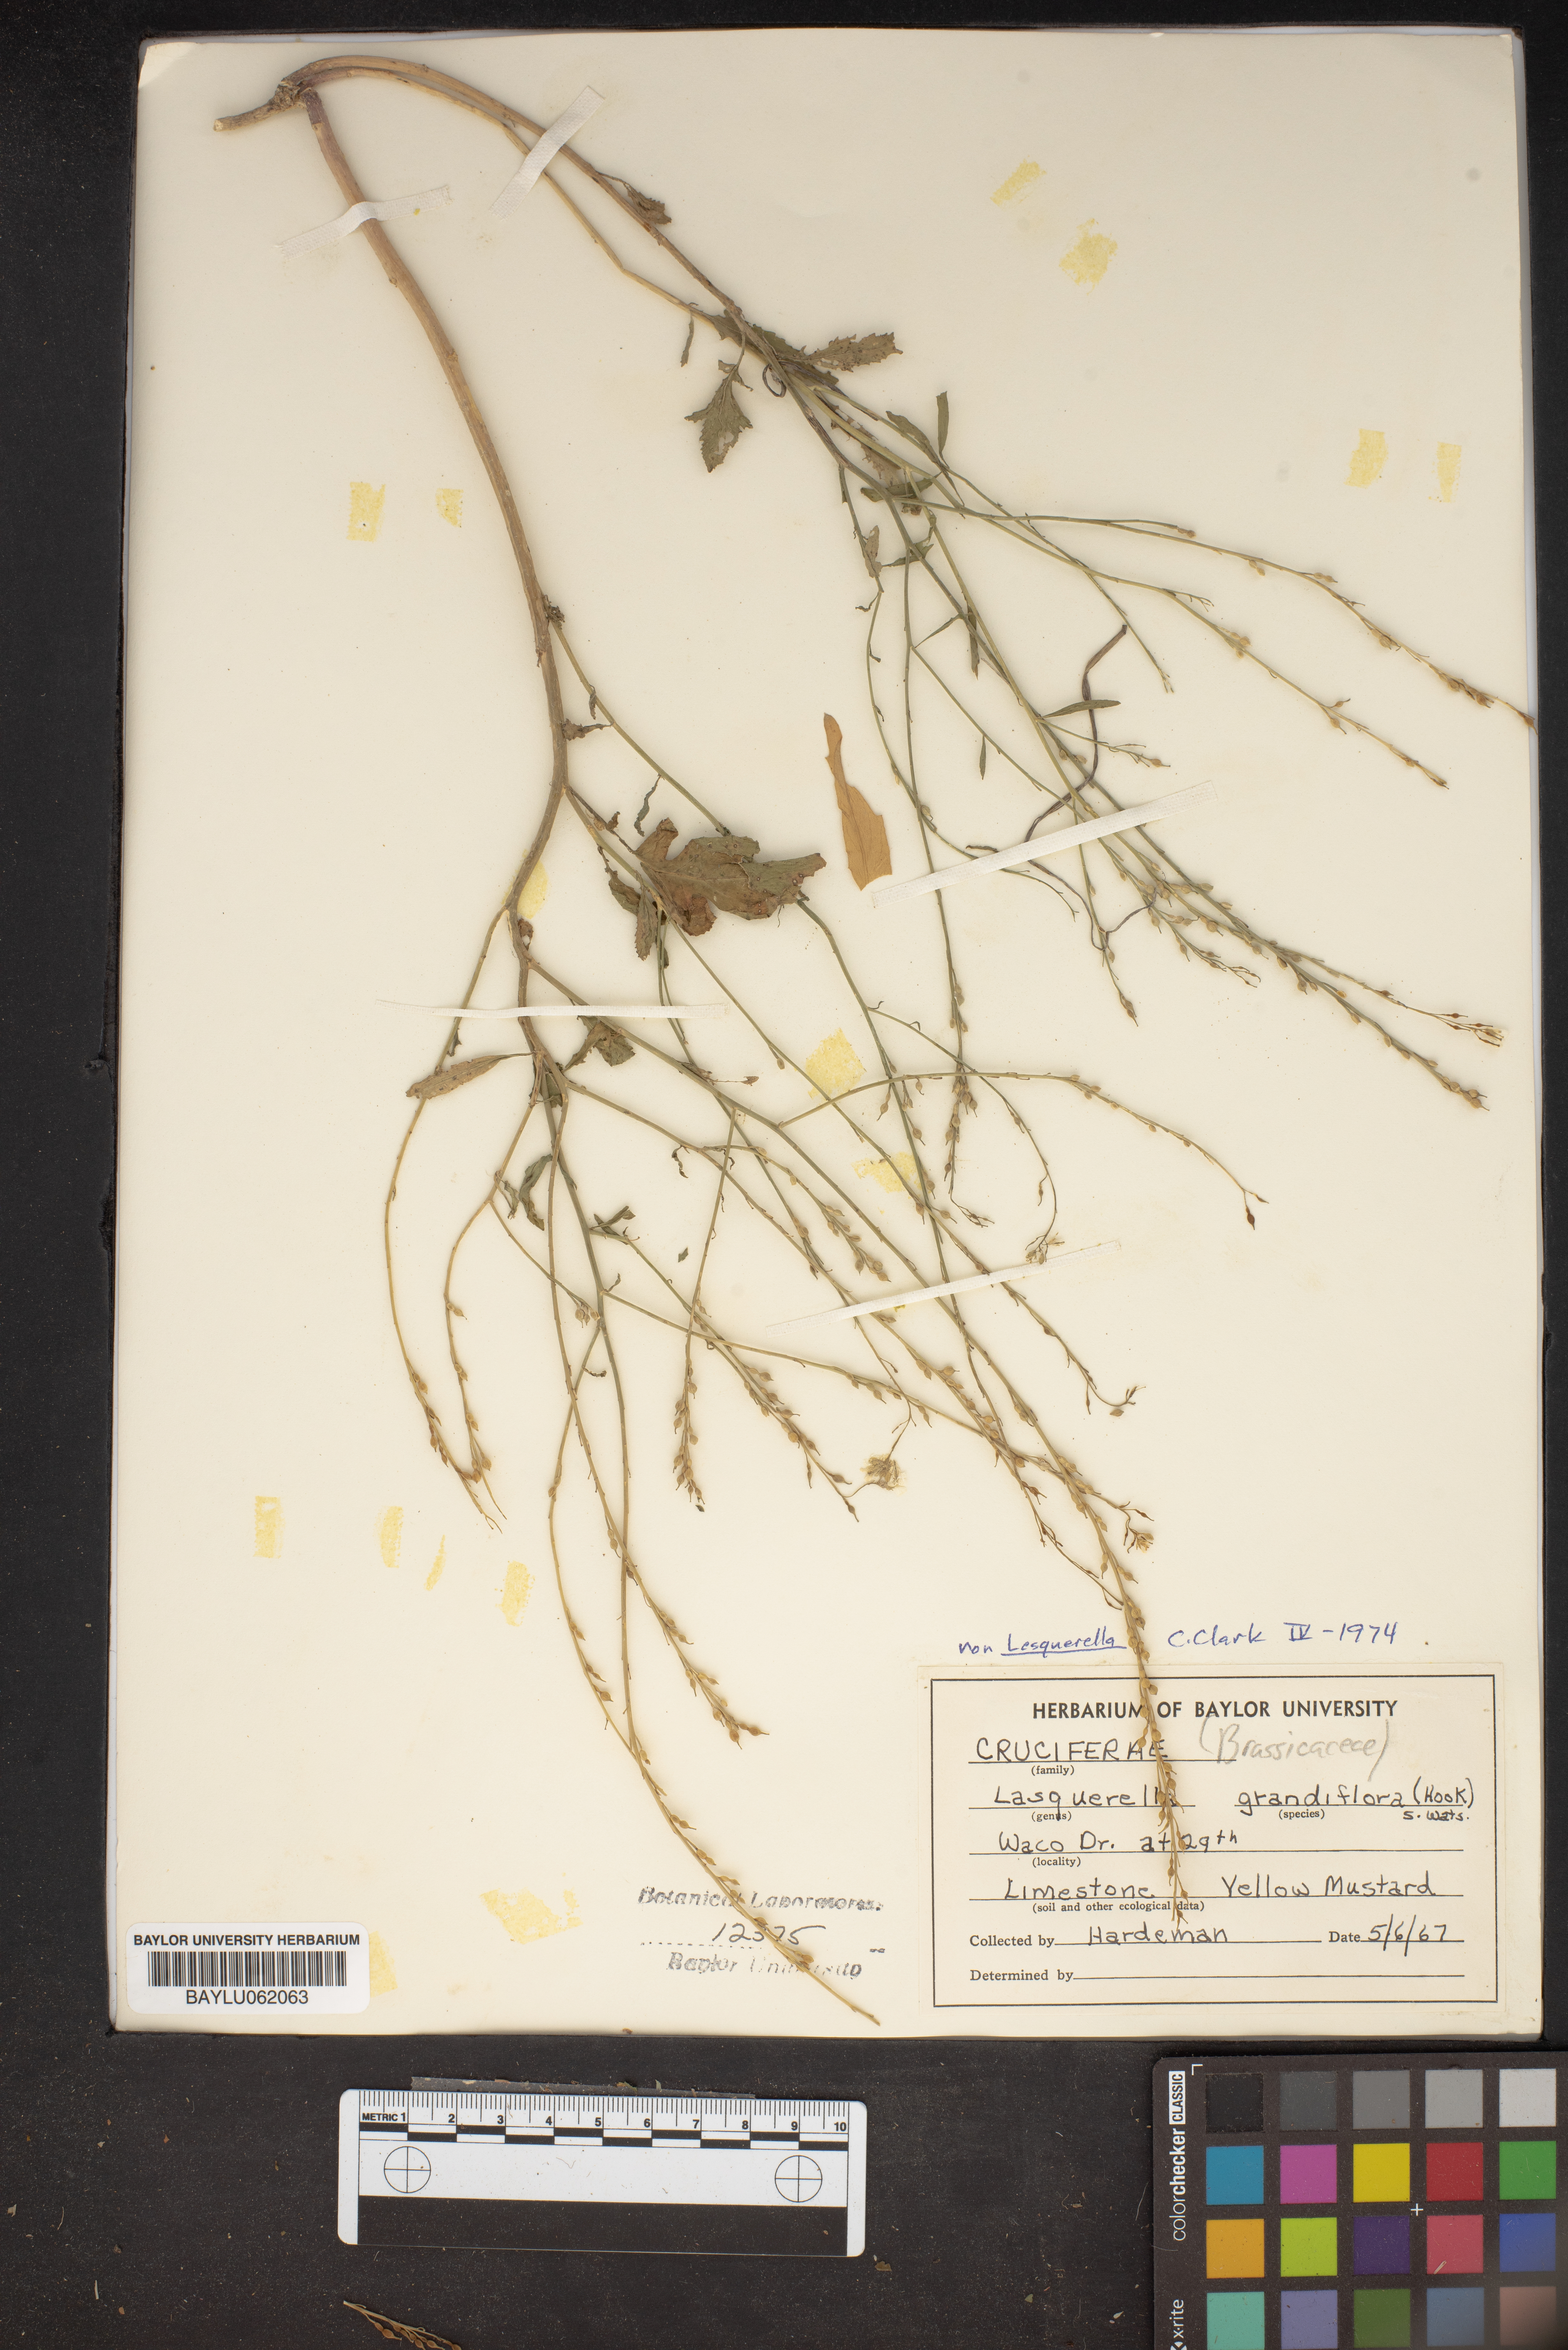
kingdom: Plantae
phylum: Tracheophyta
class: Magnoliopsida
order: Brassicales
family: Brassicaceae
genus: Paysonia
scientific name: Paysonia grandiflora
